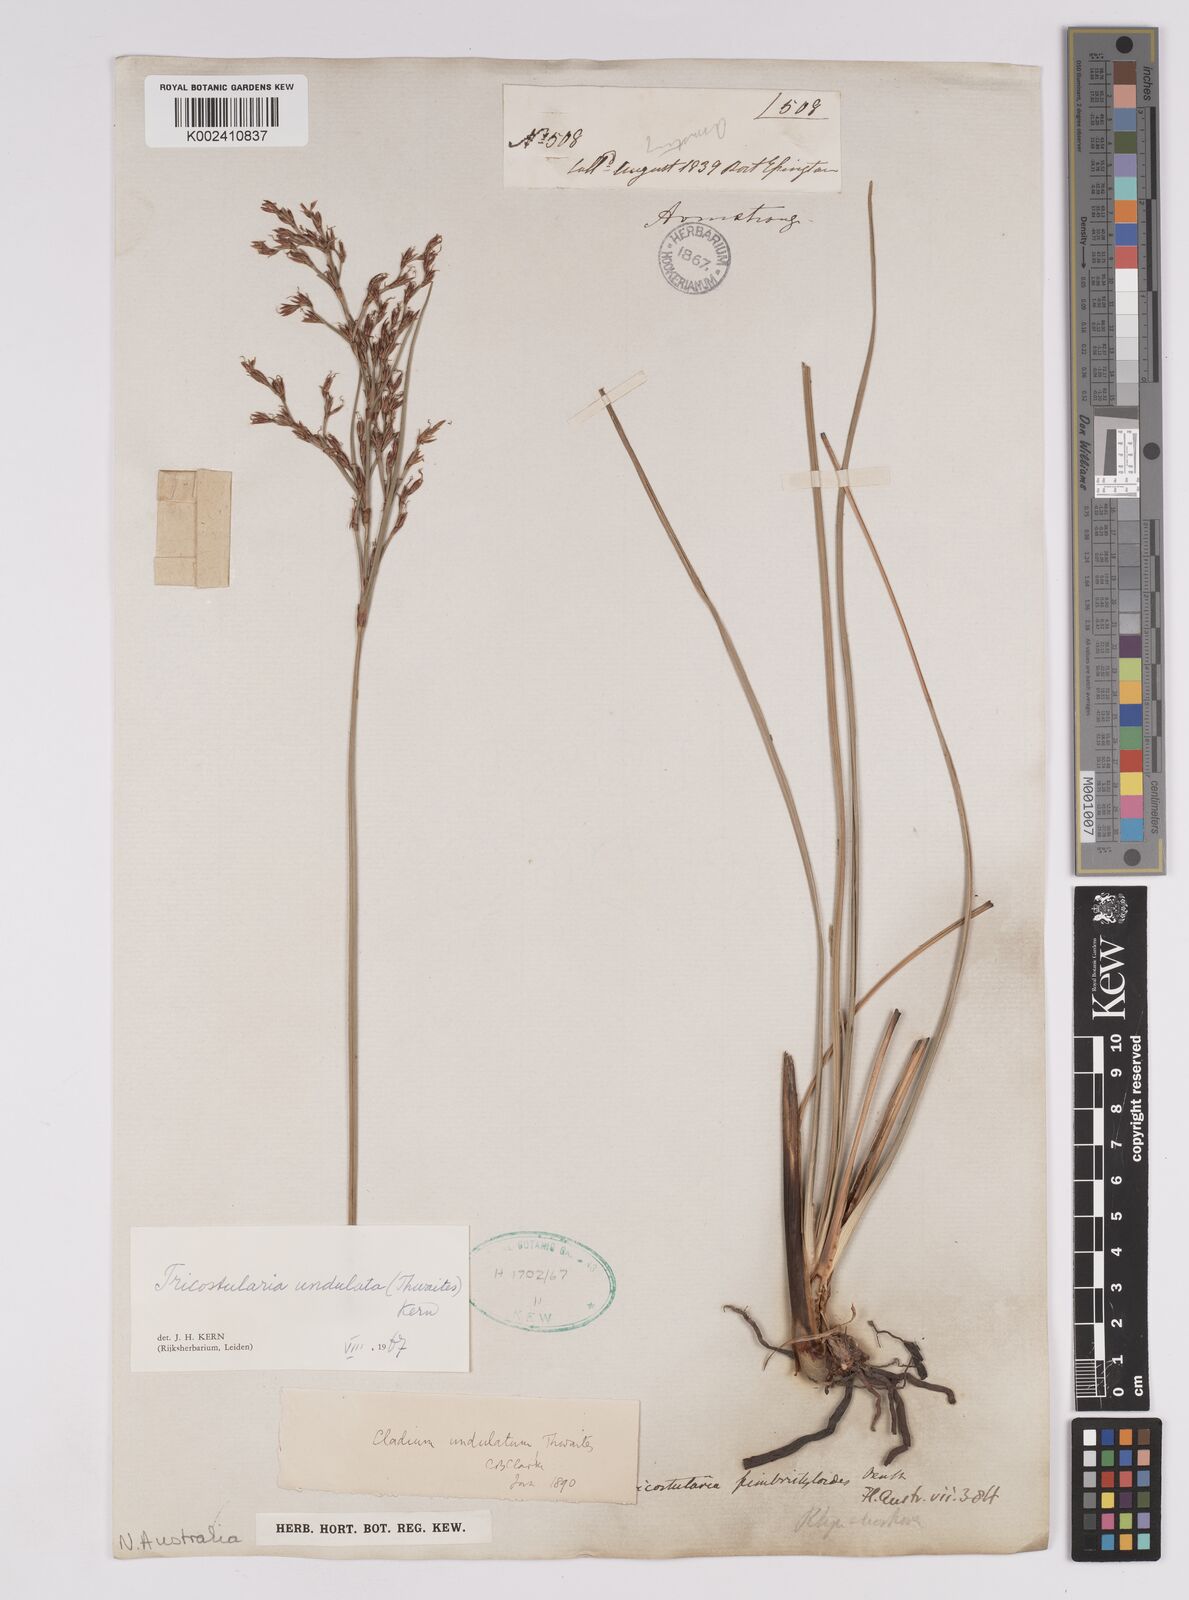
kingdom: Plantae
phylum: Tracheophyta
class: Liliopsida
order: Poales
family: Cyperaceae
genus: Anthelepis
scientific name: Anthelepis undulata
